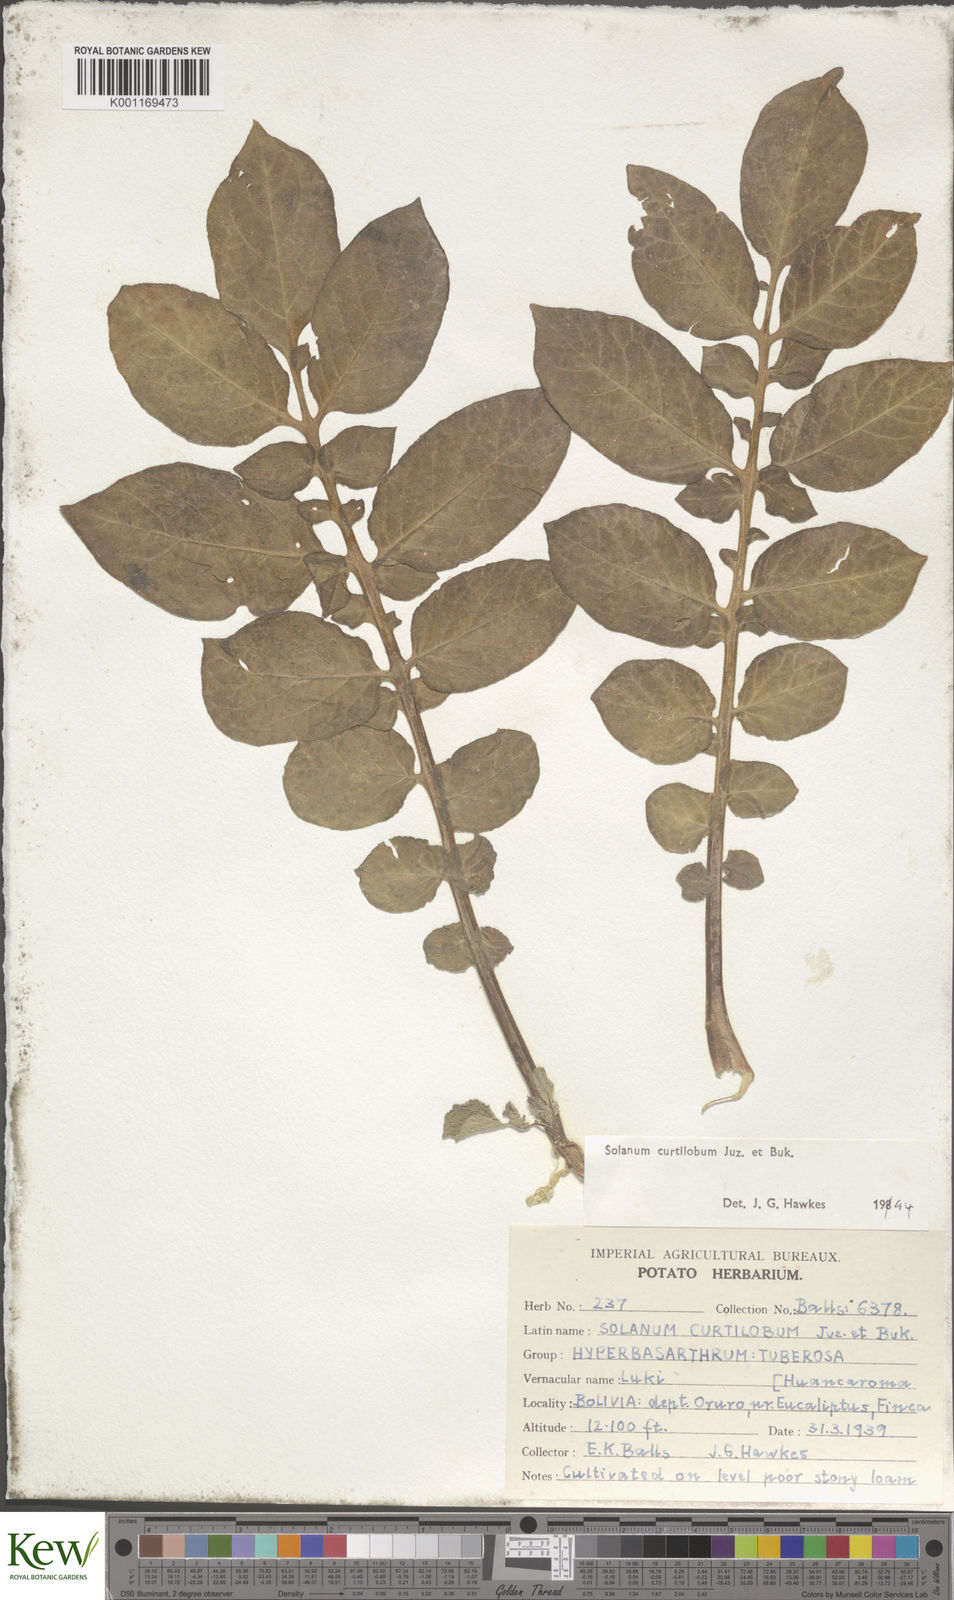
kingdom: Plantae
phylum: Tracheophyta
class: Magnoliopsida
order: Solanales
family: Solanaceae
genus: Solanum
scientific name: Solanum curtilobum
